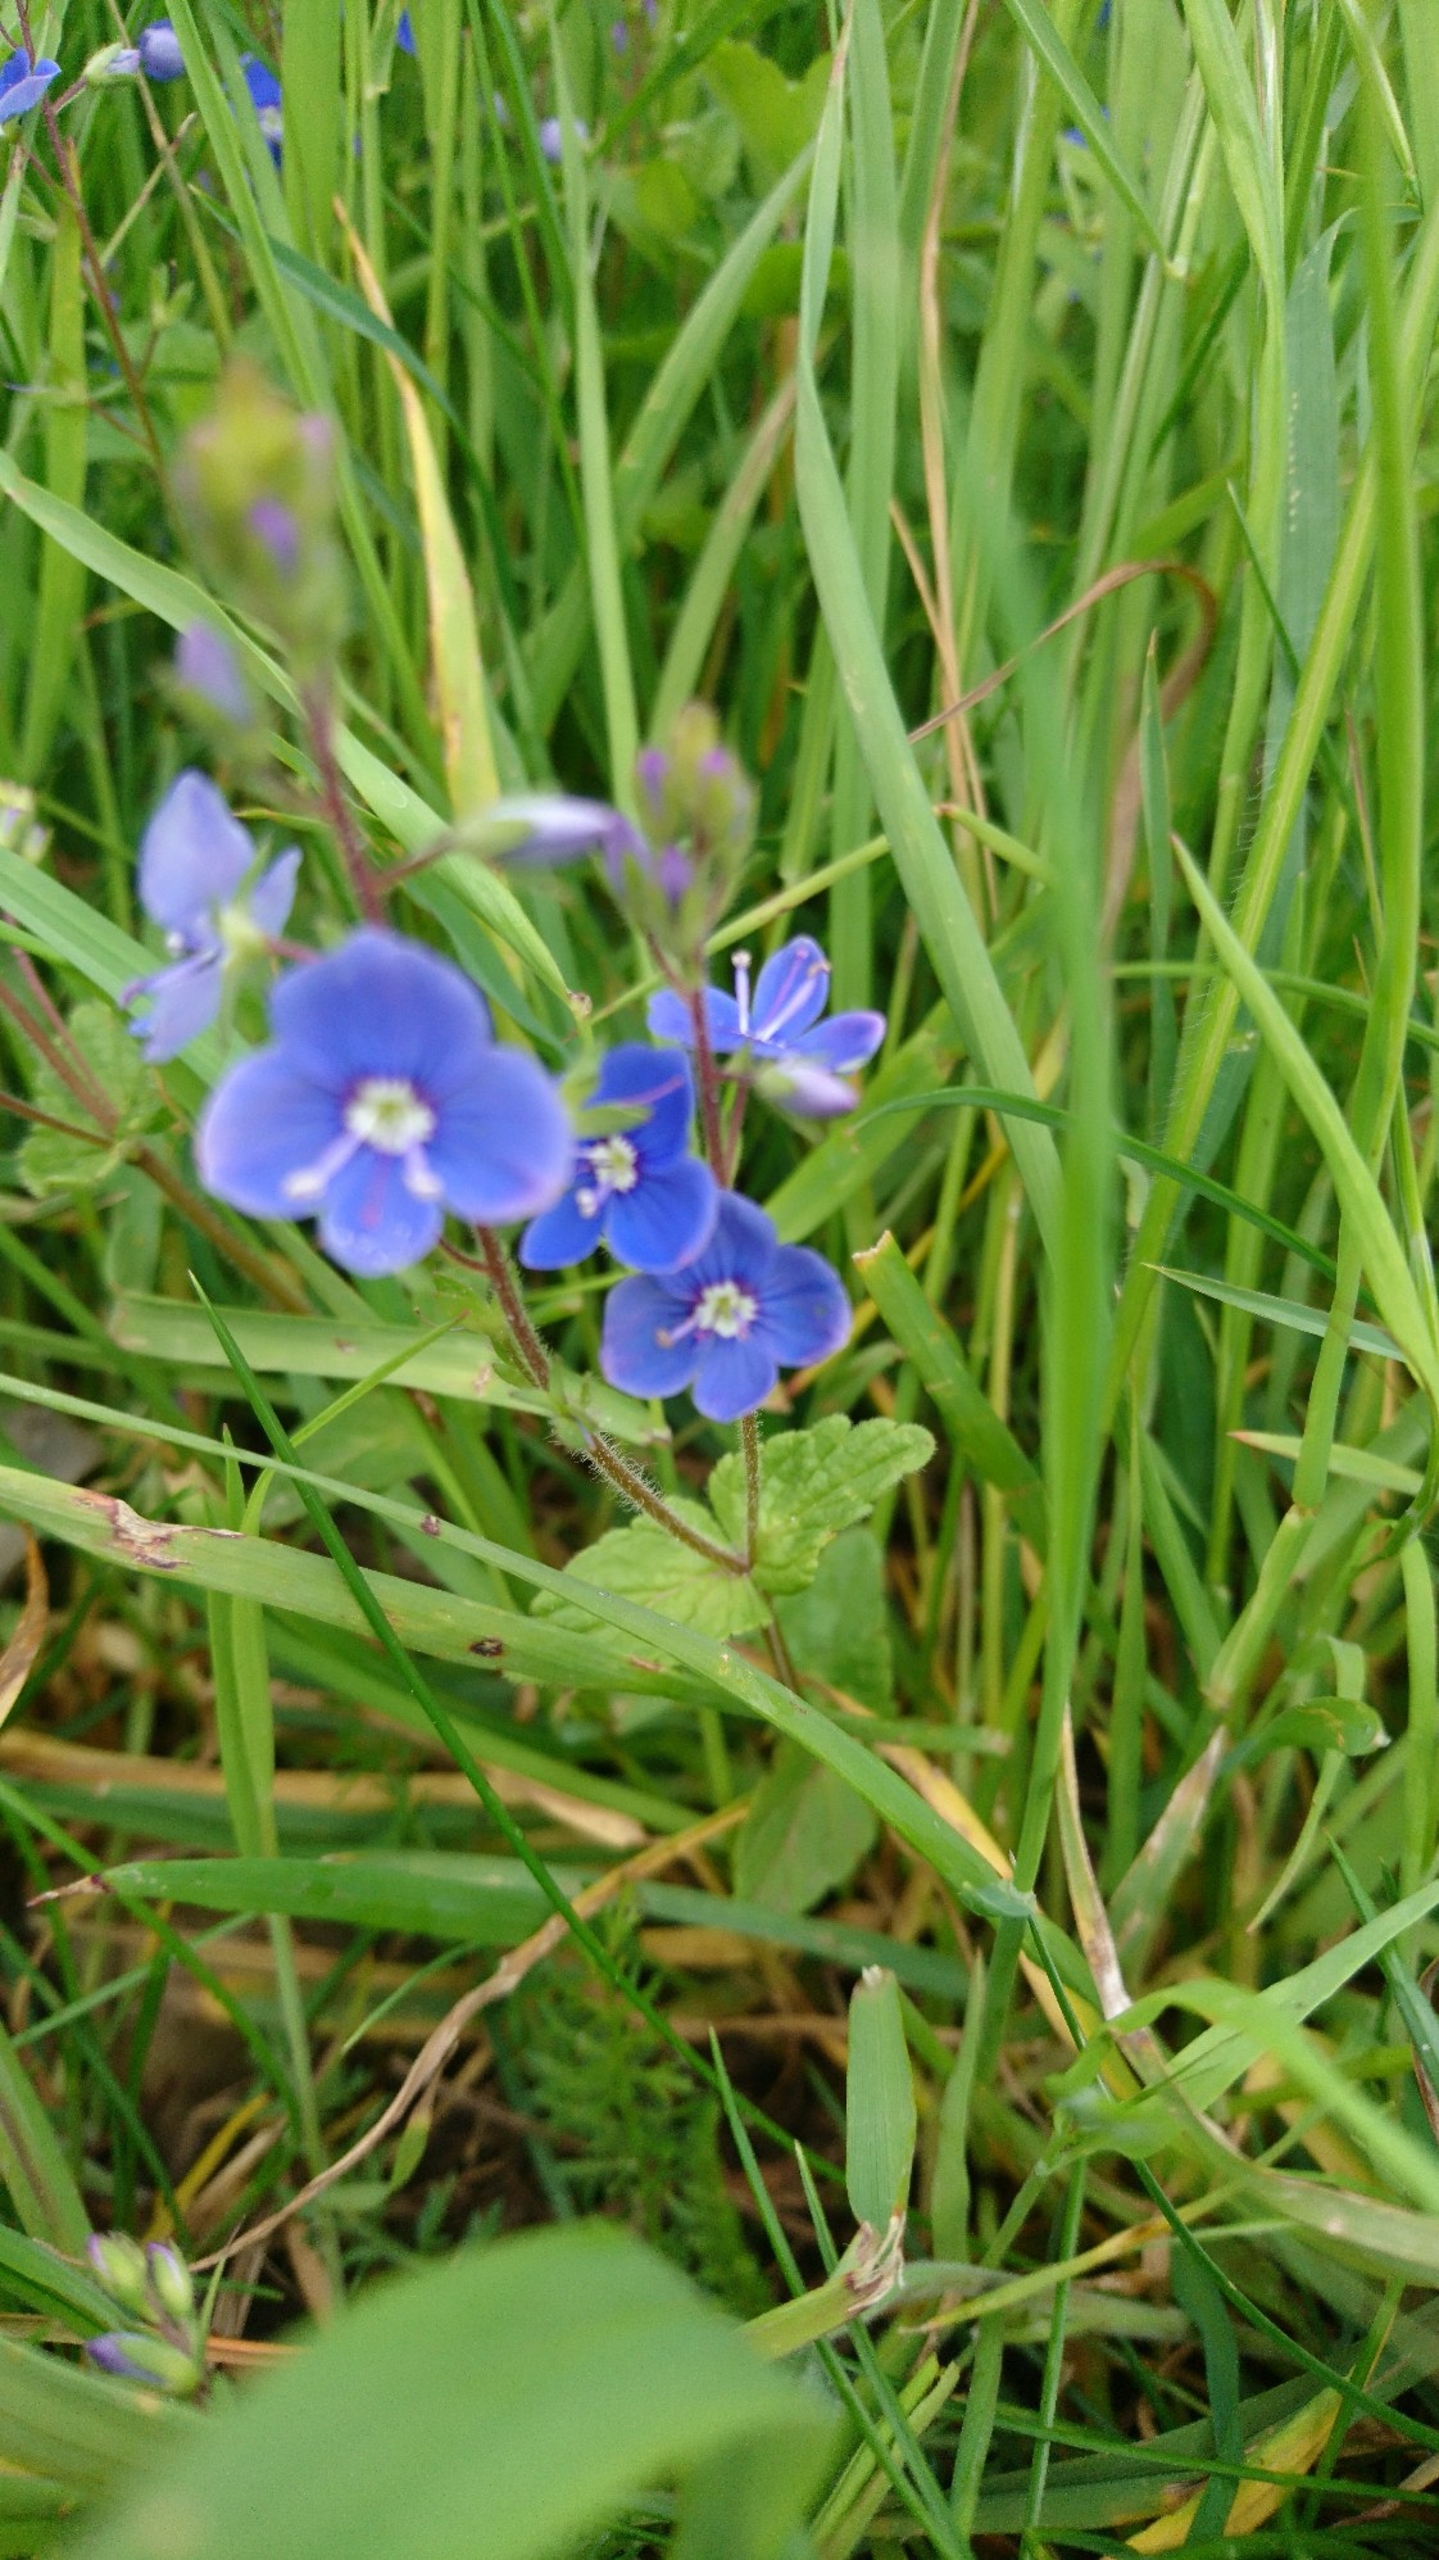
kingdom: Plantae
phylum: Tracheophyta
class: Magnoliopsida
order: Lamiales
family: Plantaginaceae
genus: Veronica
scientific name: Veronica chamaedrys
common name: Tveskægget ærenpris
